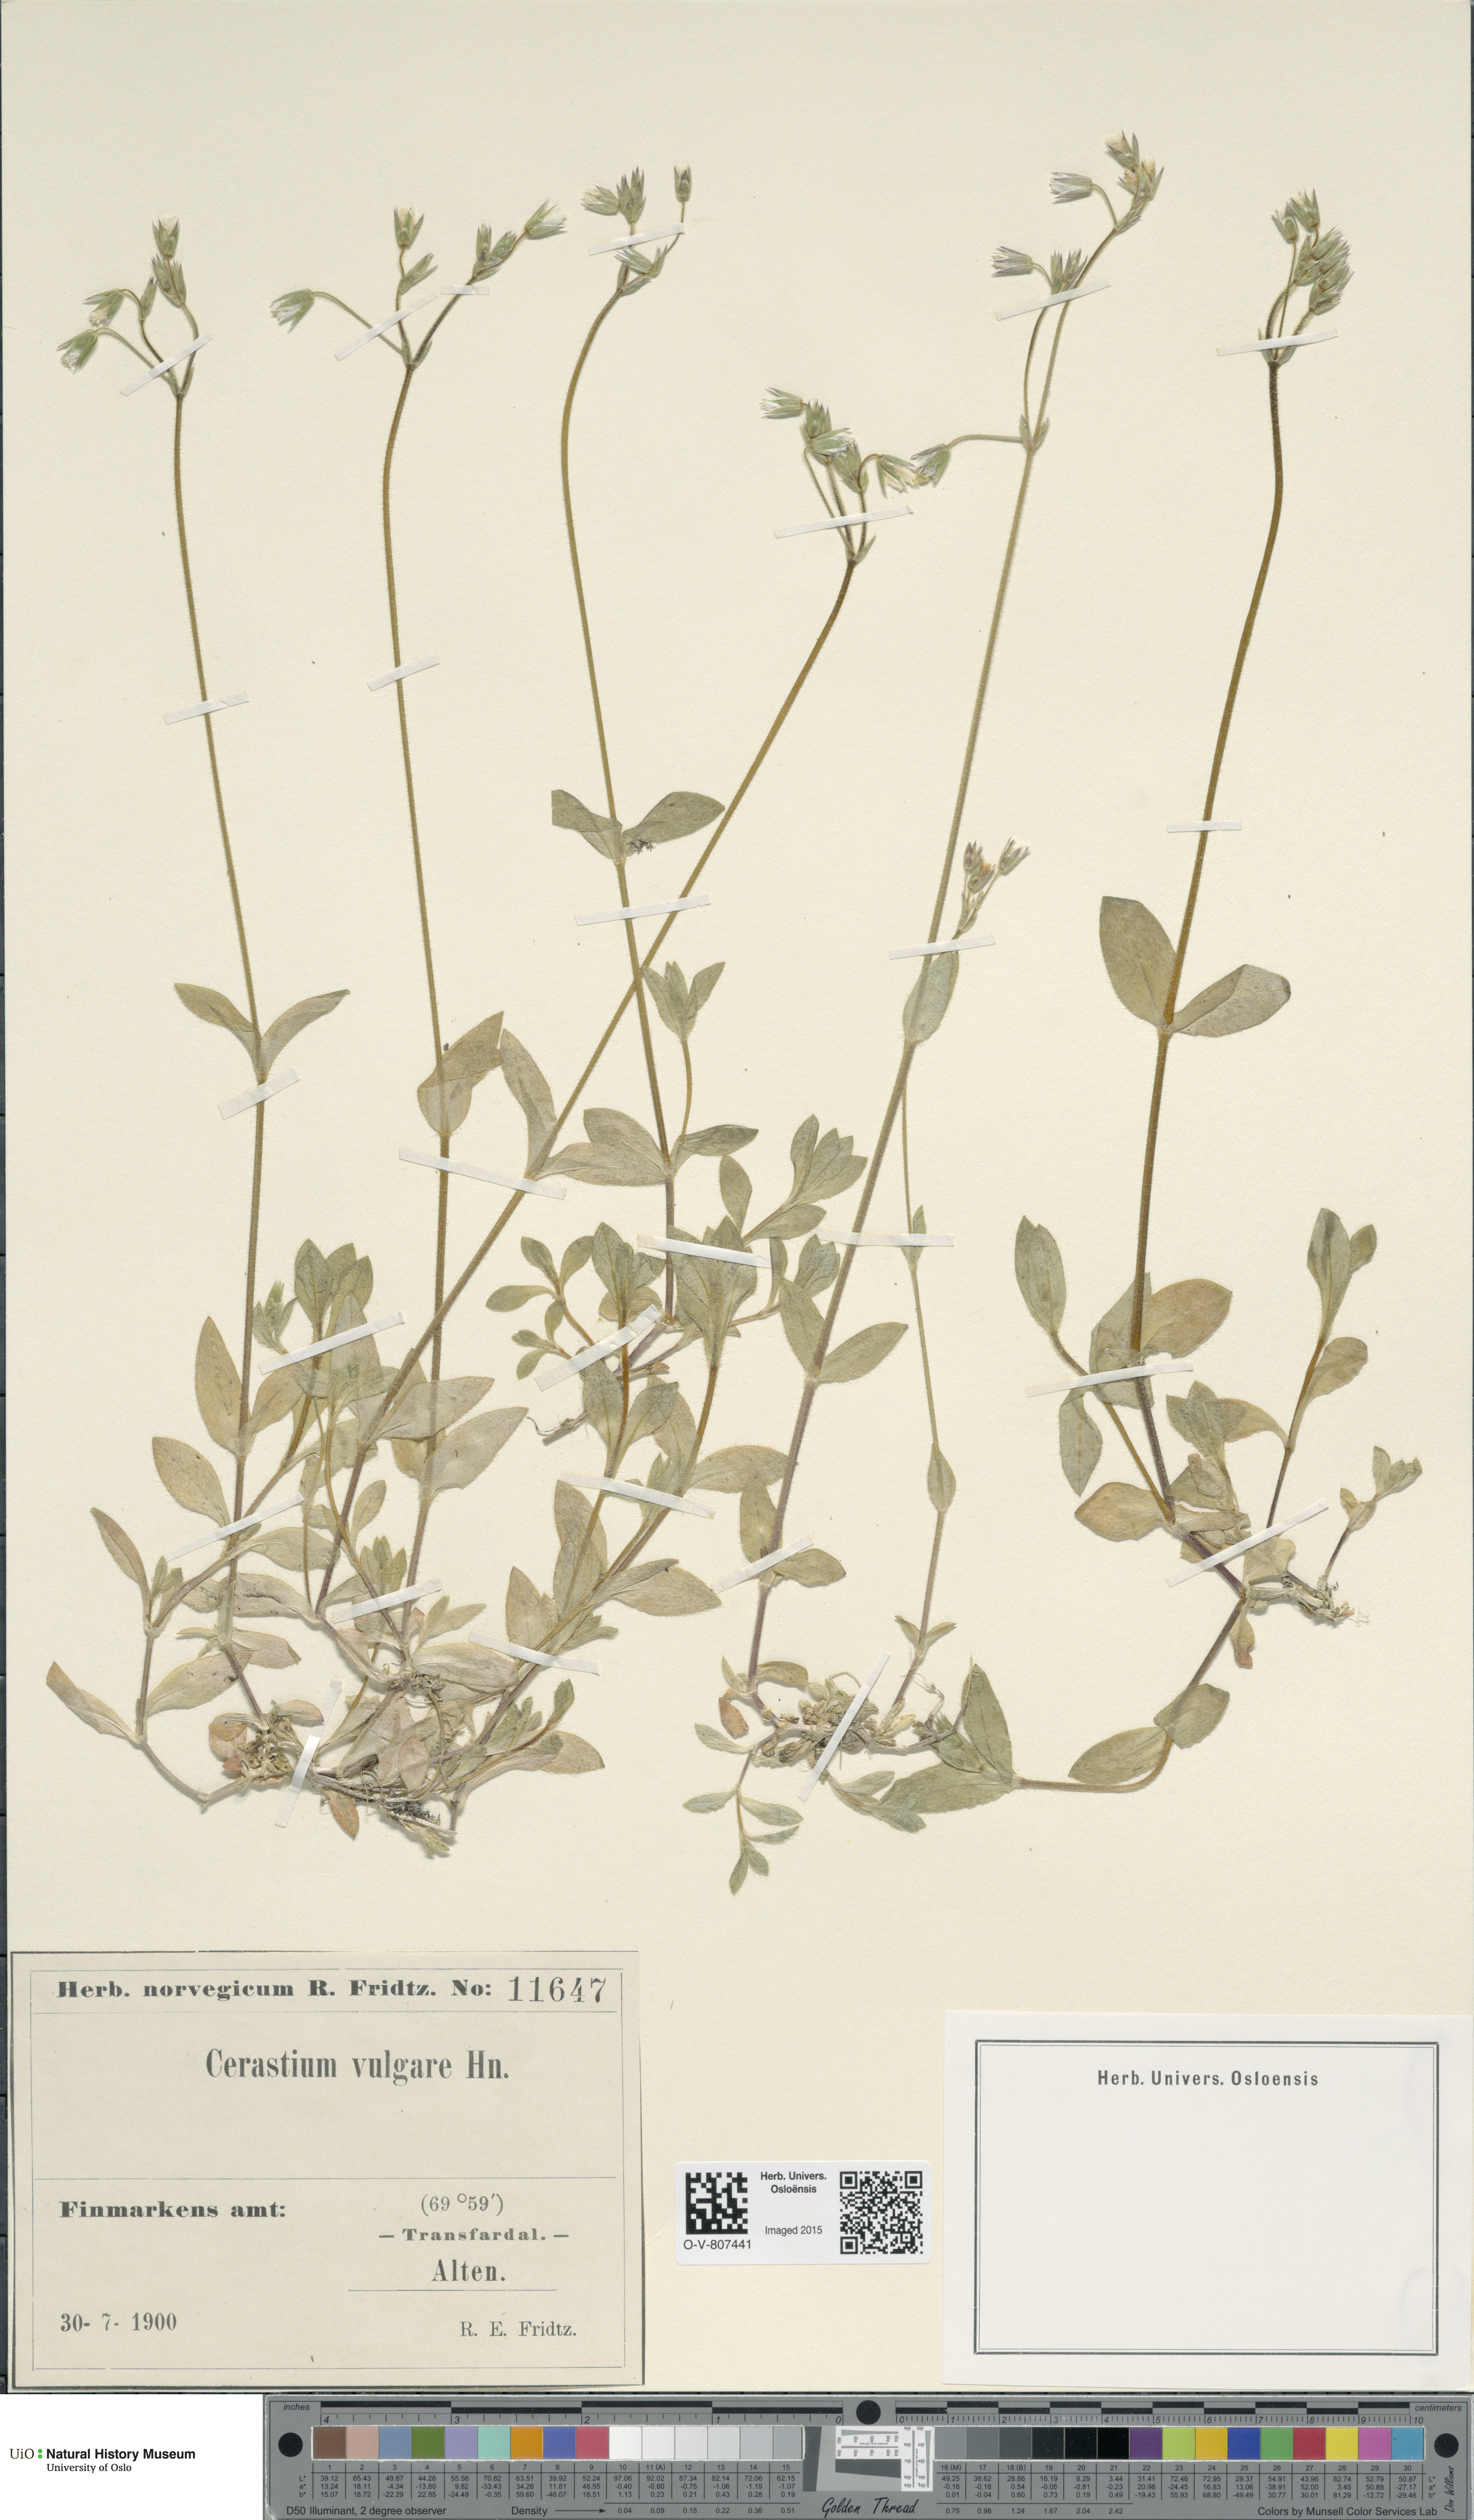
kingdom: Plantae
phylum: Tracheophyta
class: Magnoliopsida
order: Caryophyllales
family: Caryophyllaceae
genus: Cerastium
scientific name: Cerastium holosteoides
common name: Big chickweed
